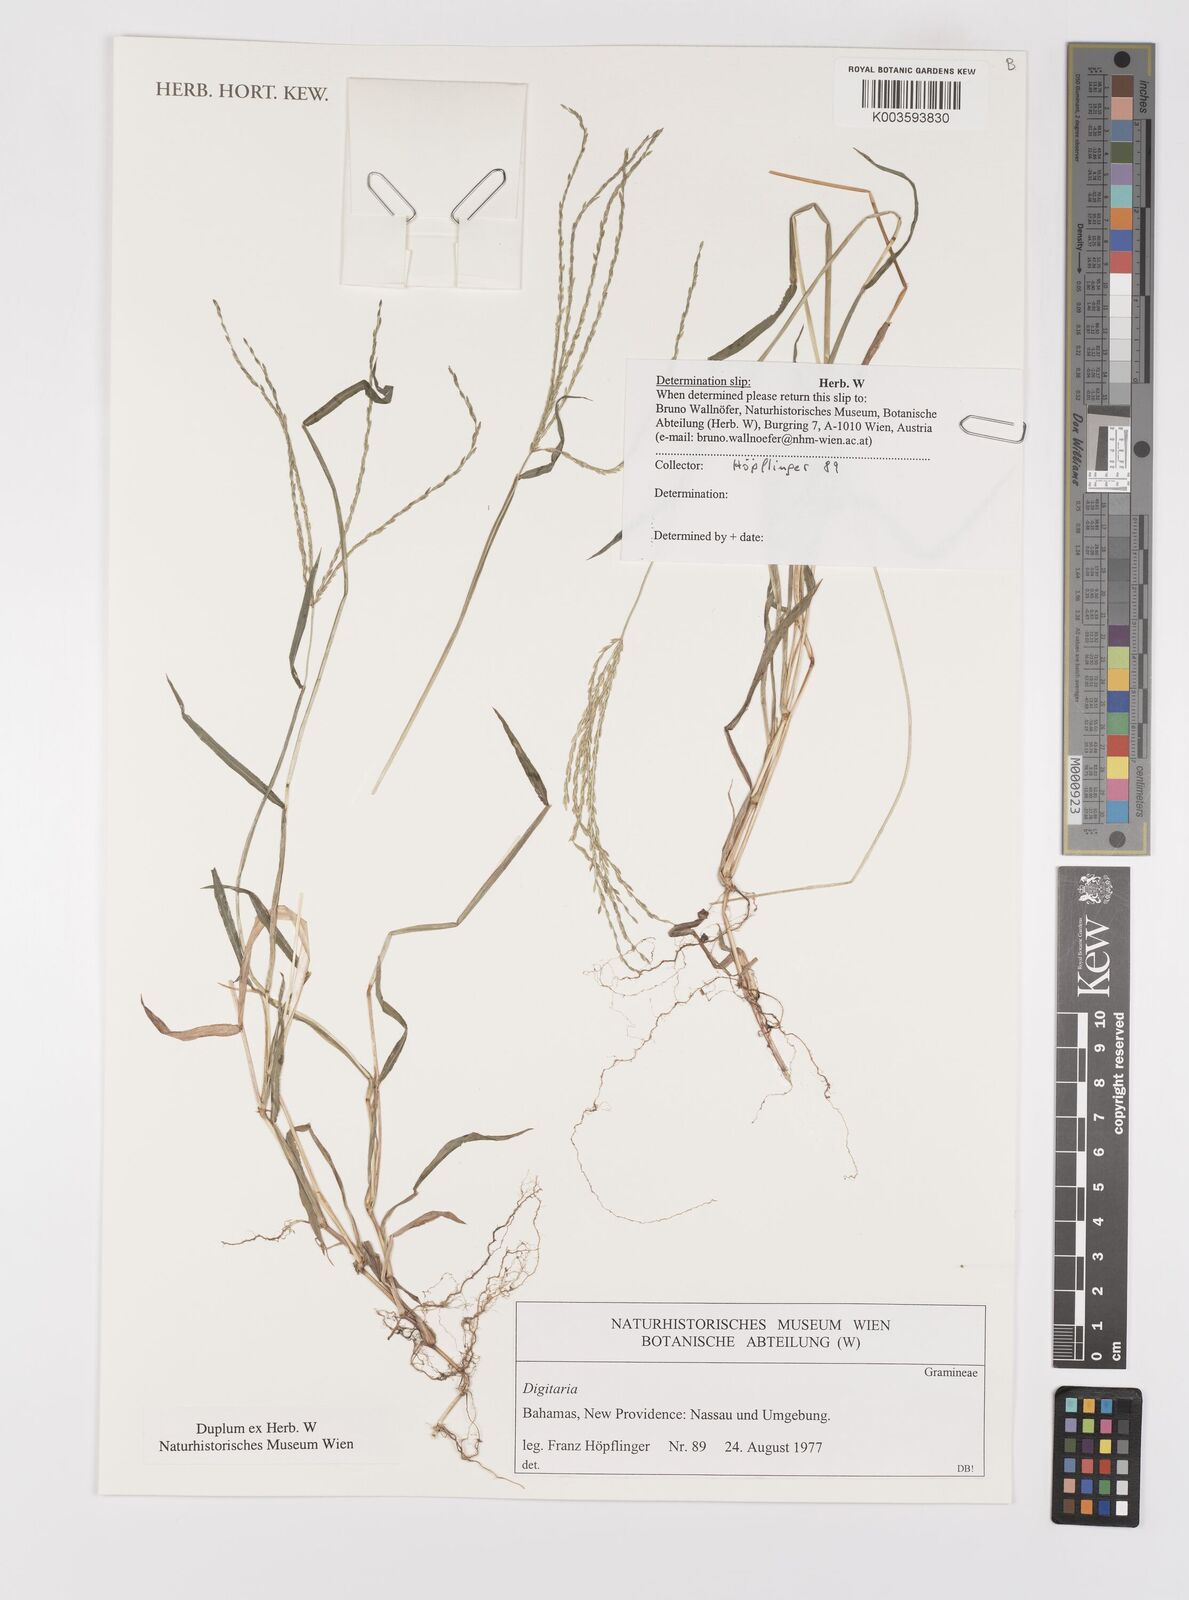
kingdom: Plantae
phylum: Tracheophyta
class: Liliopsida
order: Poales
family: Poaceae
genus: Digitaria
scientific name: Digitaria
